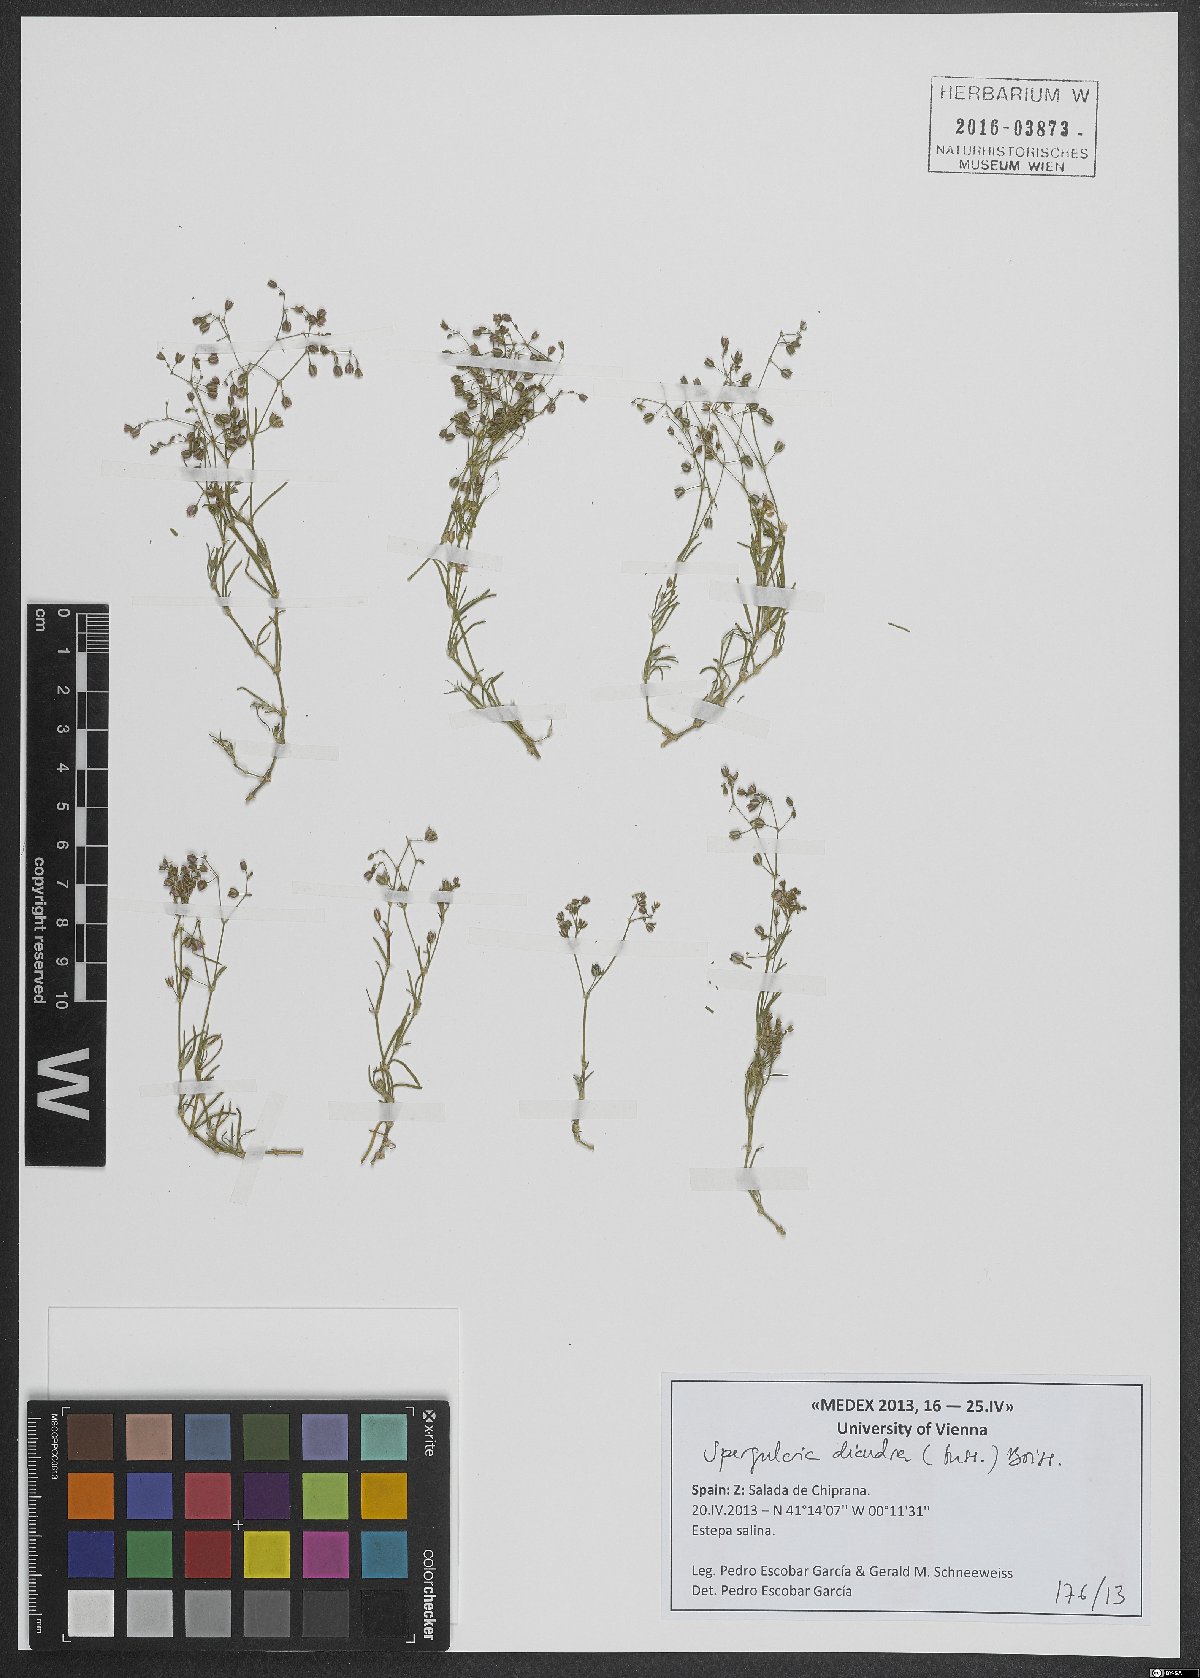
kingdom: Plantae
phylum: Tracheophyta
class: Magnoliopsida
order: Caryophyllales
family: Caryophyllaceae
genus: Spergularia
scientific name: Spergularia diandra
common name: Alkali sand-spurrey
